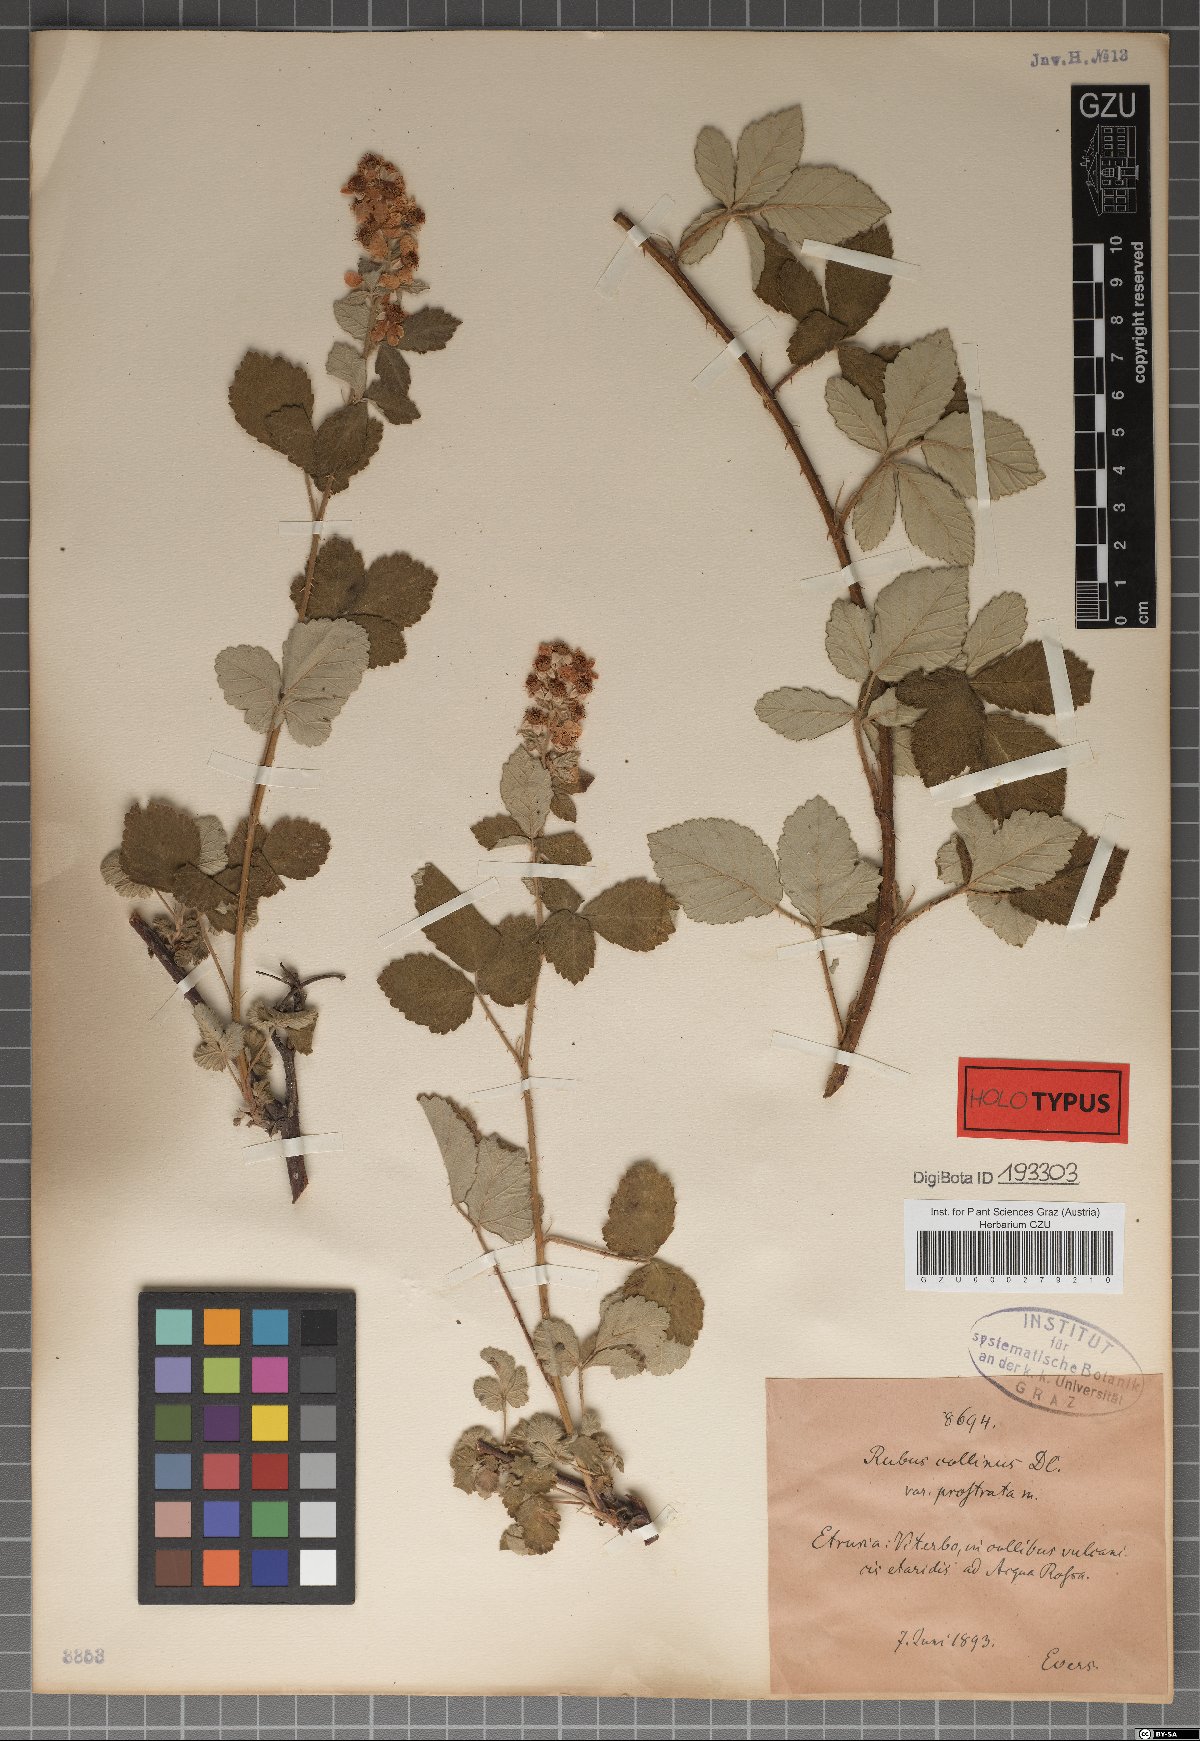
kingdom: Plantae
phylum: Tracheophyta
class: Magnoliopsida
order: Rosales
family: Rosaceae
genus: Rubus
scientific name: Rubus collinus
